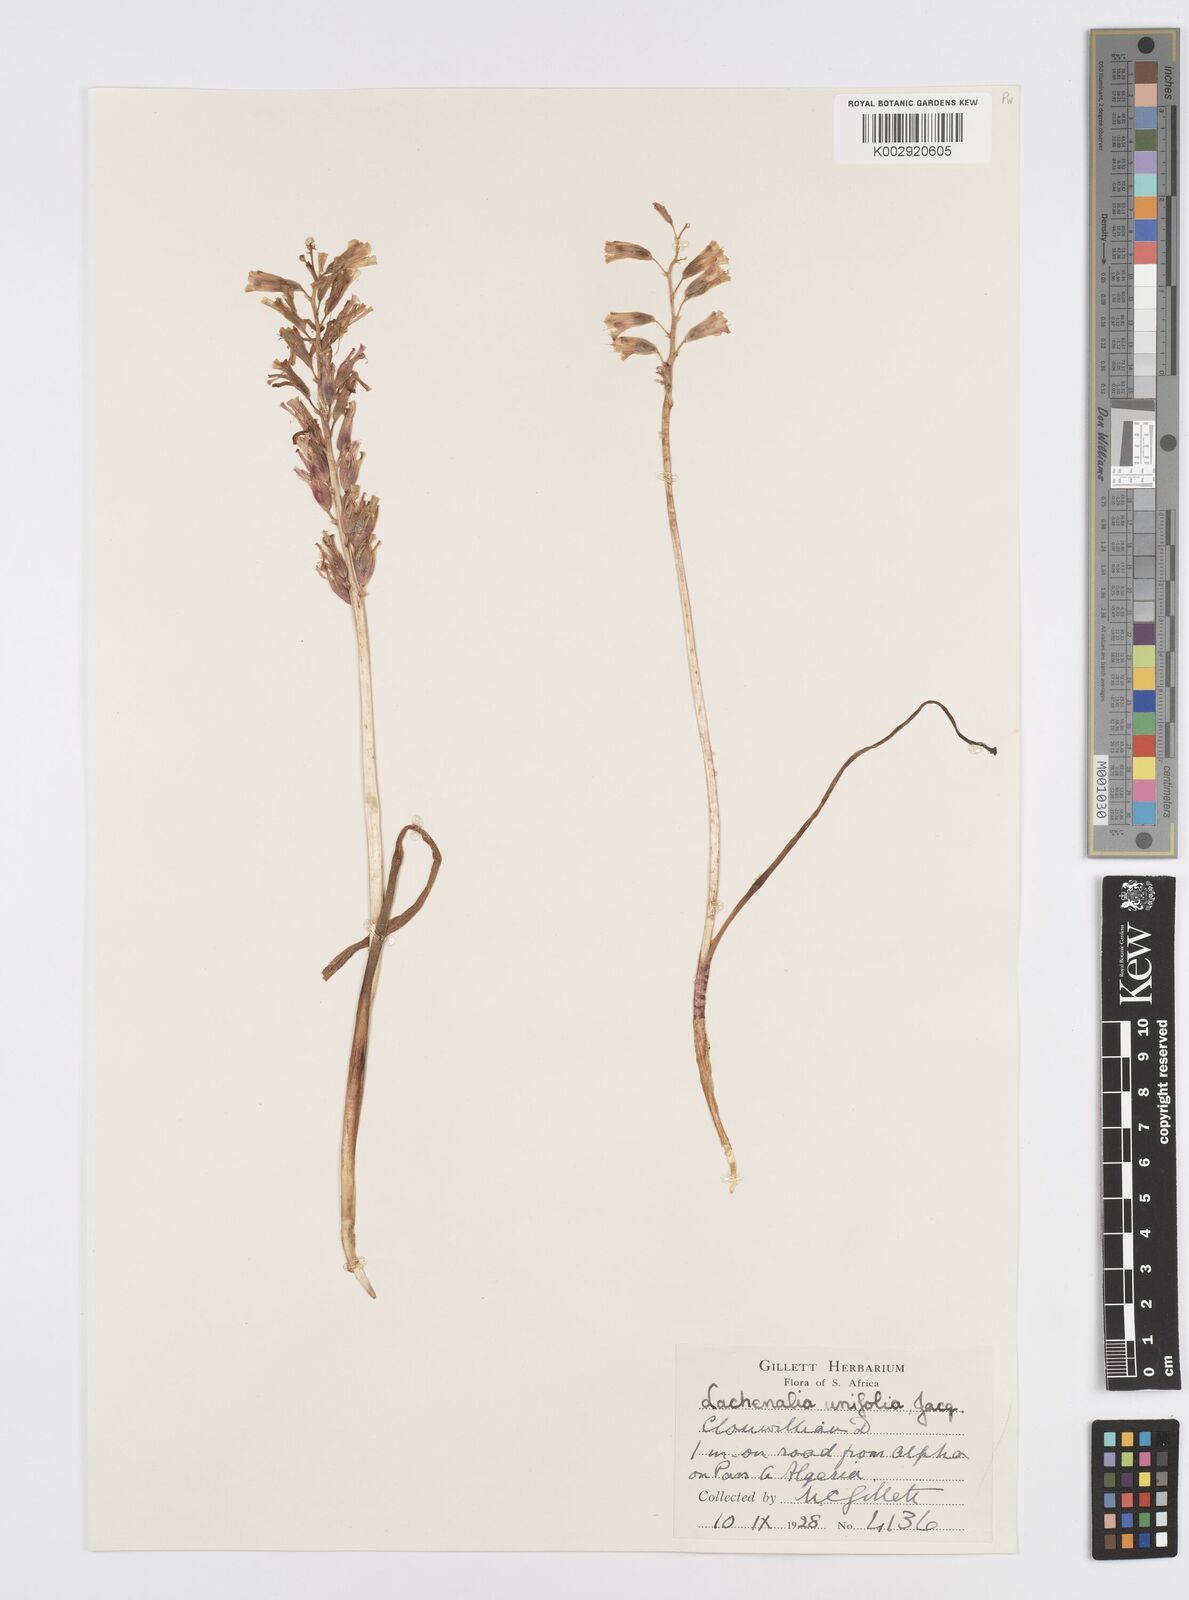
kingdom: Plantae
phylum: Tracheophyta
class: Liliopsida
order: Asparagales
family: Asparagaceae
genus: Lachenalia
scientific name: Lachenalia unifolia
